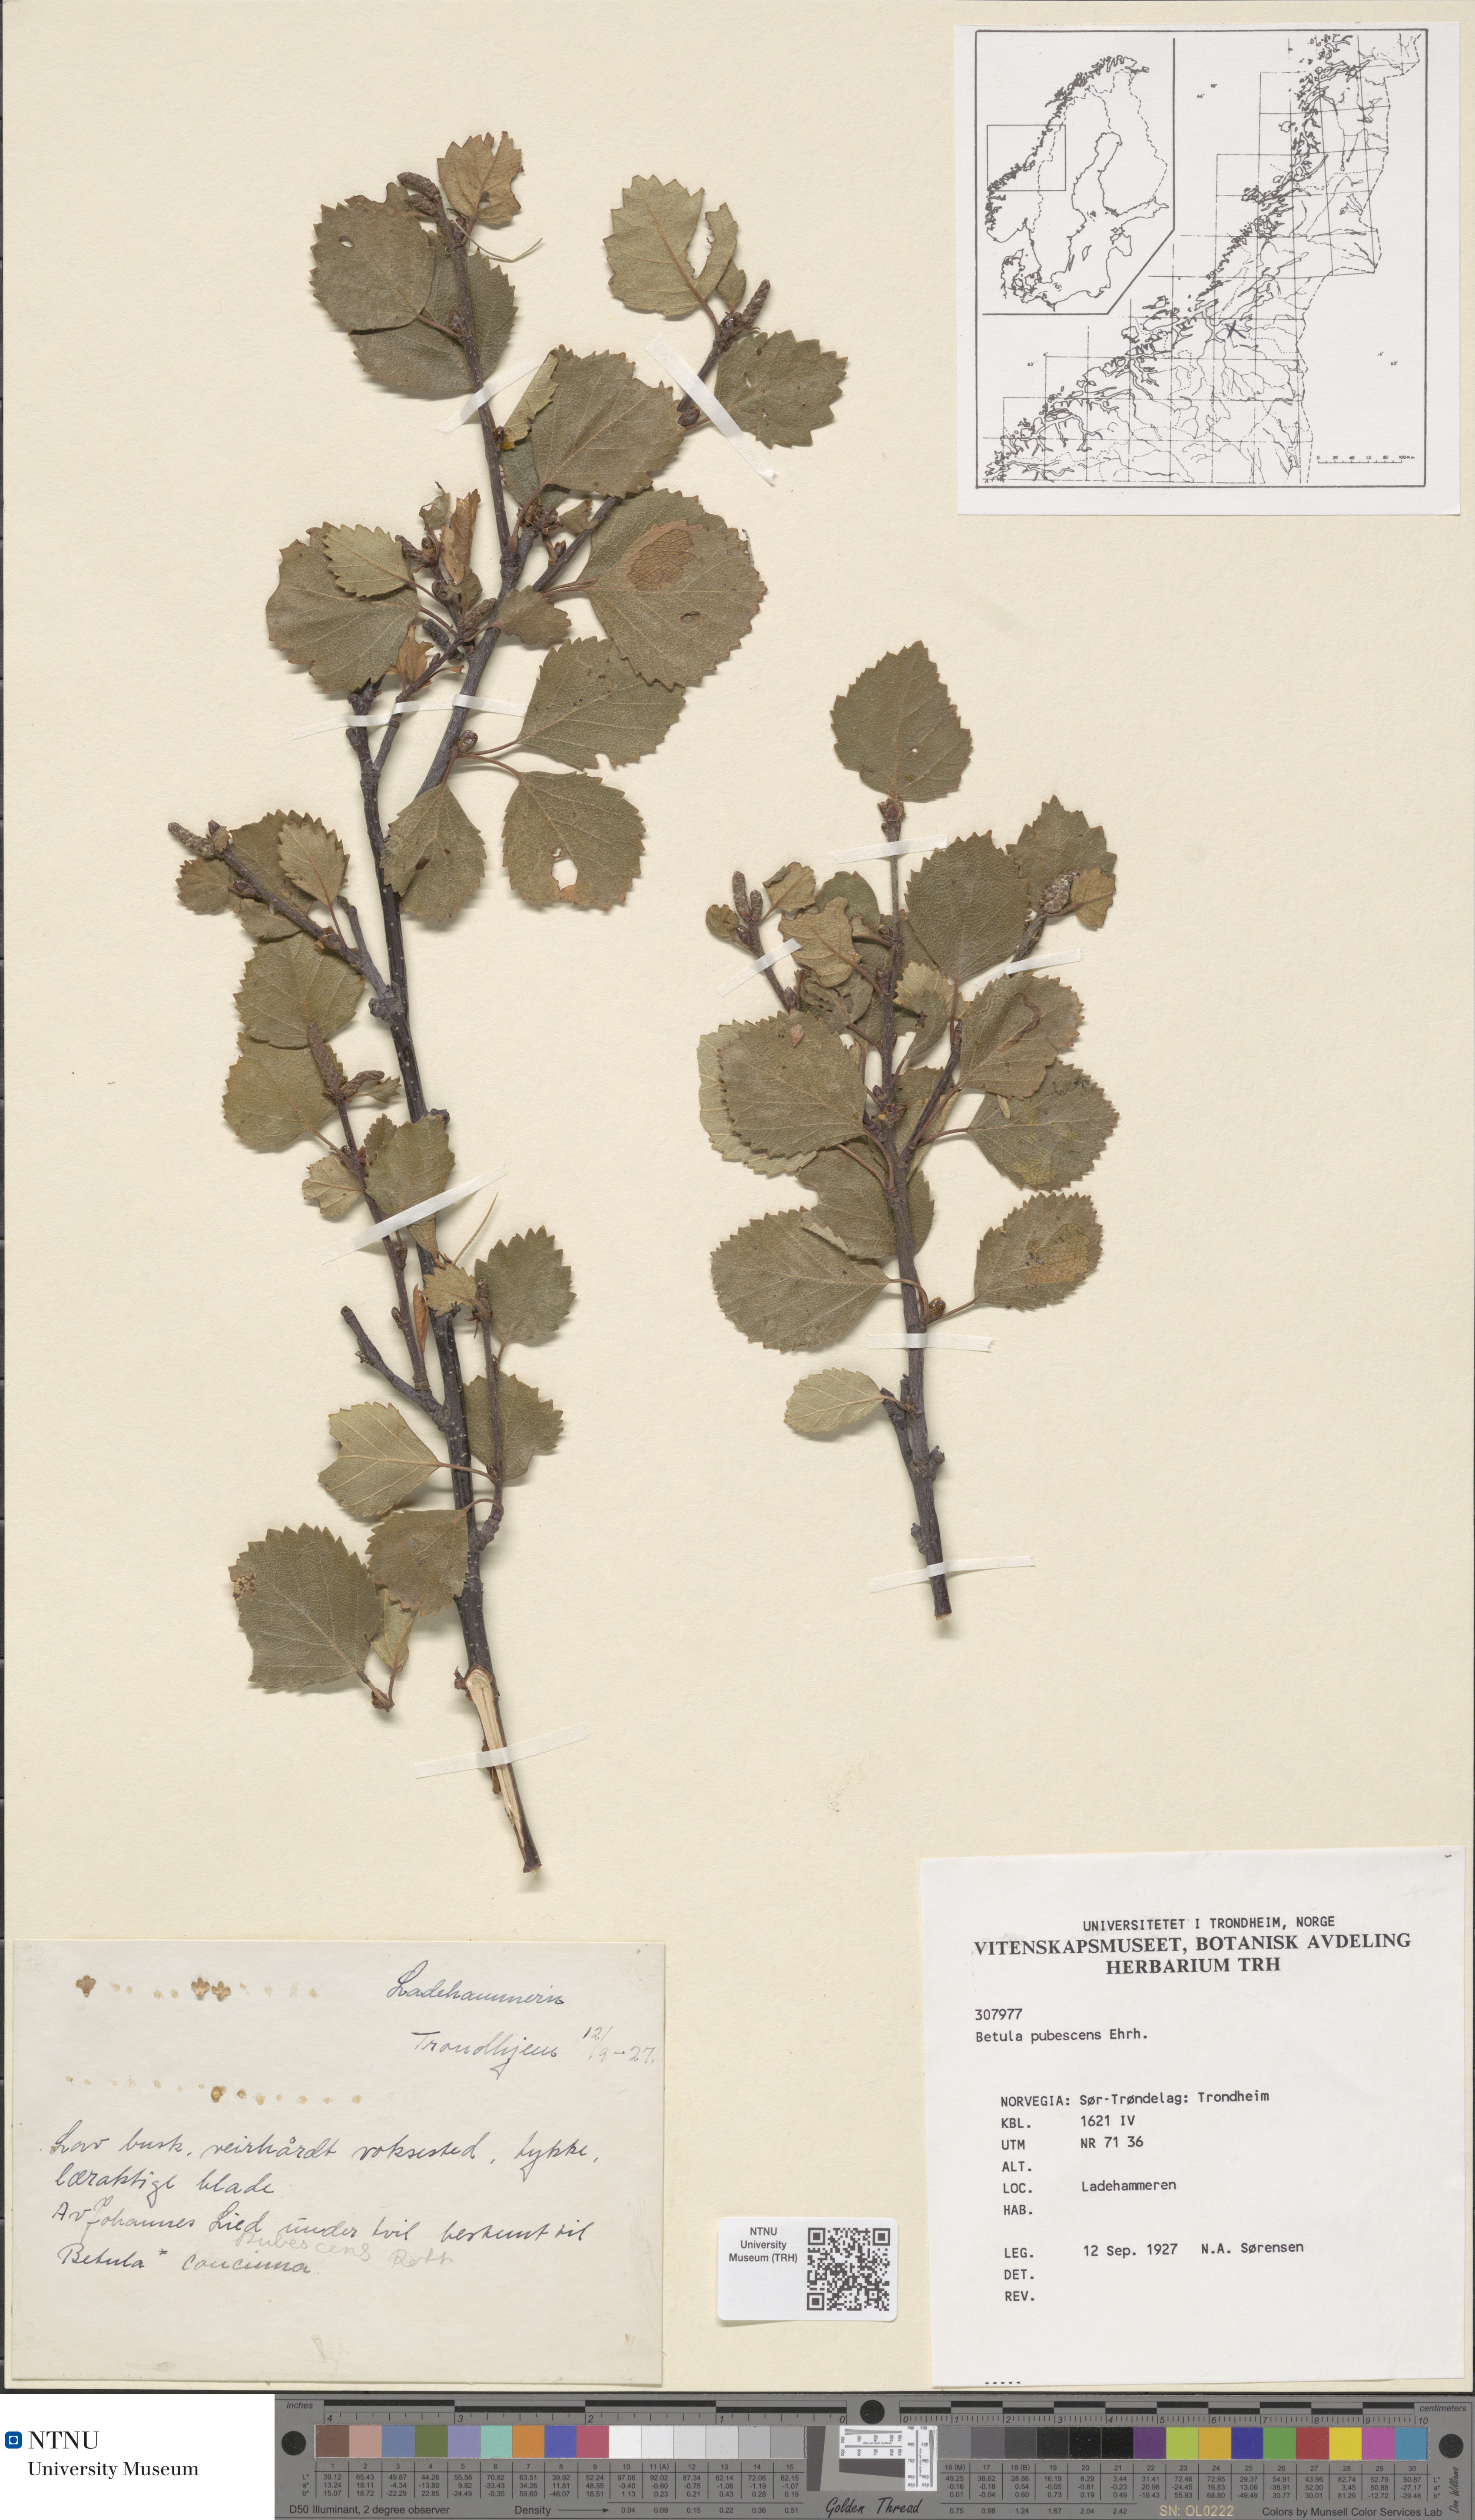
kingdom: Plantae
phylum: Tracheophyta
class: Magnoliopsida
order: Fagales
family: Betulaceae
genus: Betula
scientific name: Betula pubescens
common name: Downy birch
